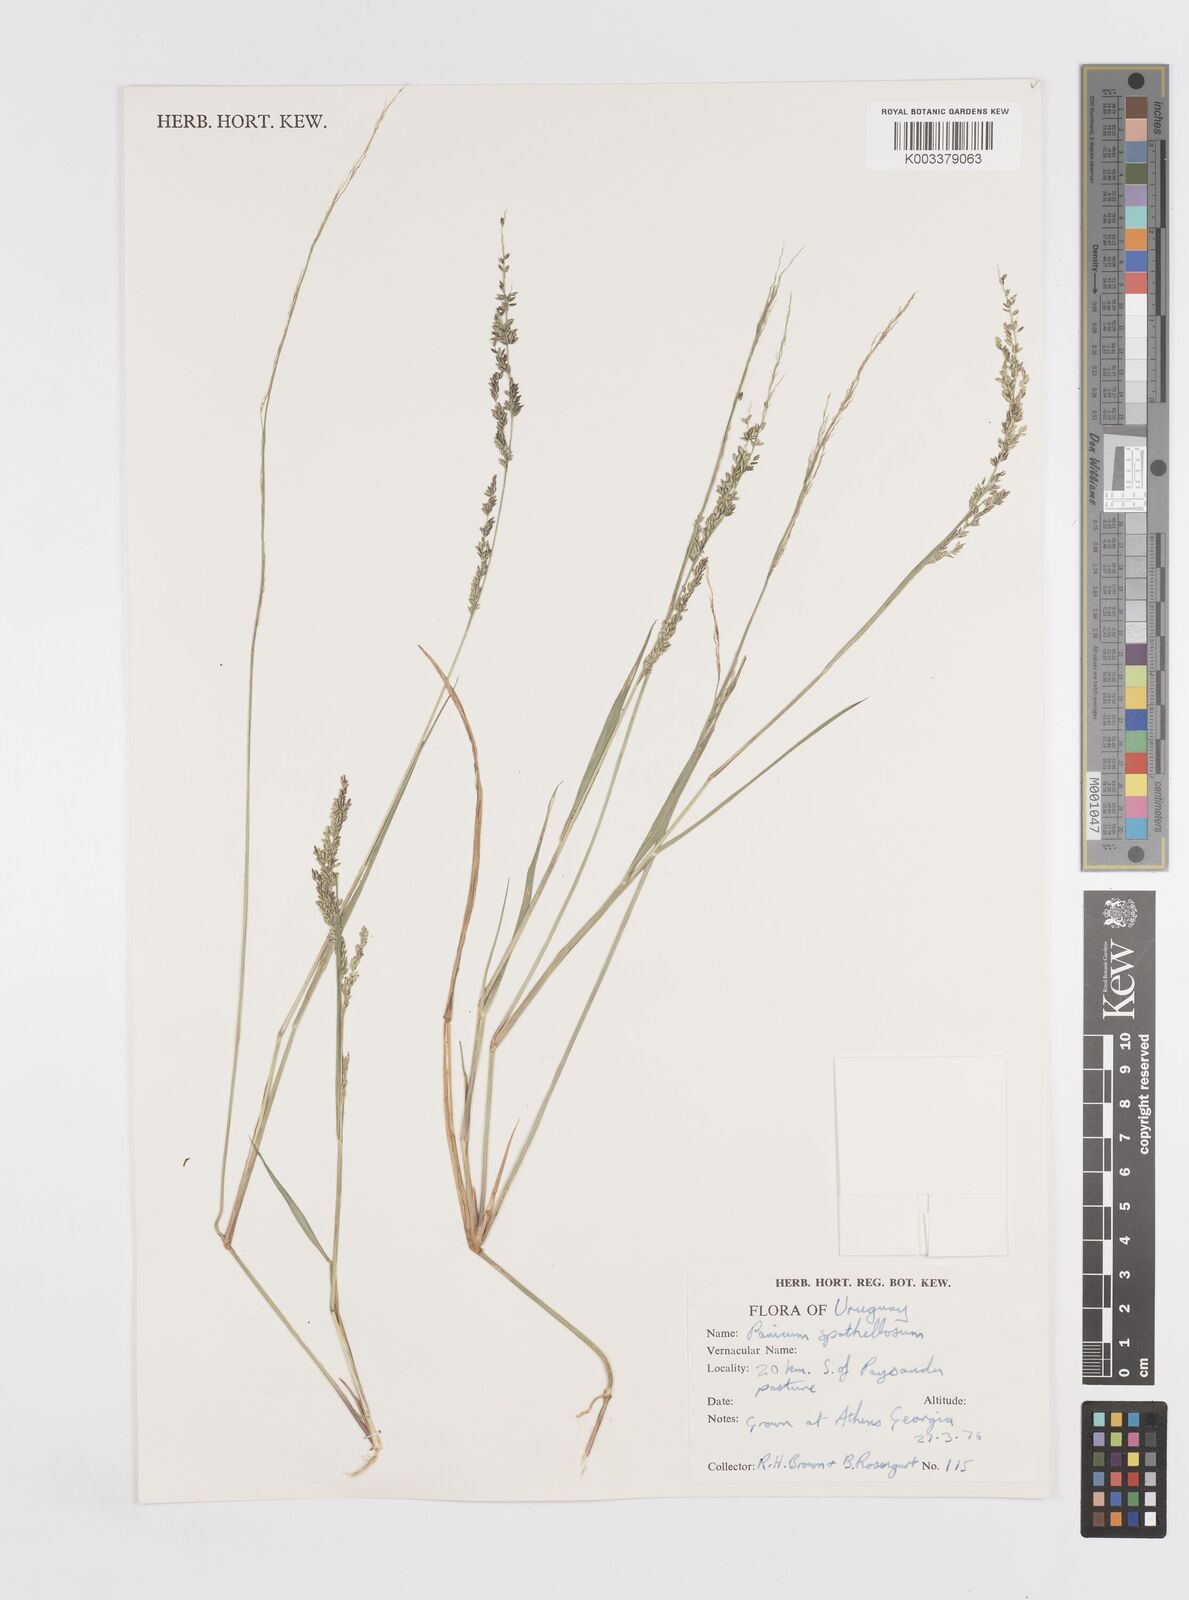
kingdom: Plantae
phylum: Tracheophyta
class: Liliopsida
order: Poales
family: Poaceae
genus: Steinchisma
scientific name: Steinchisma spathellosum
